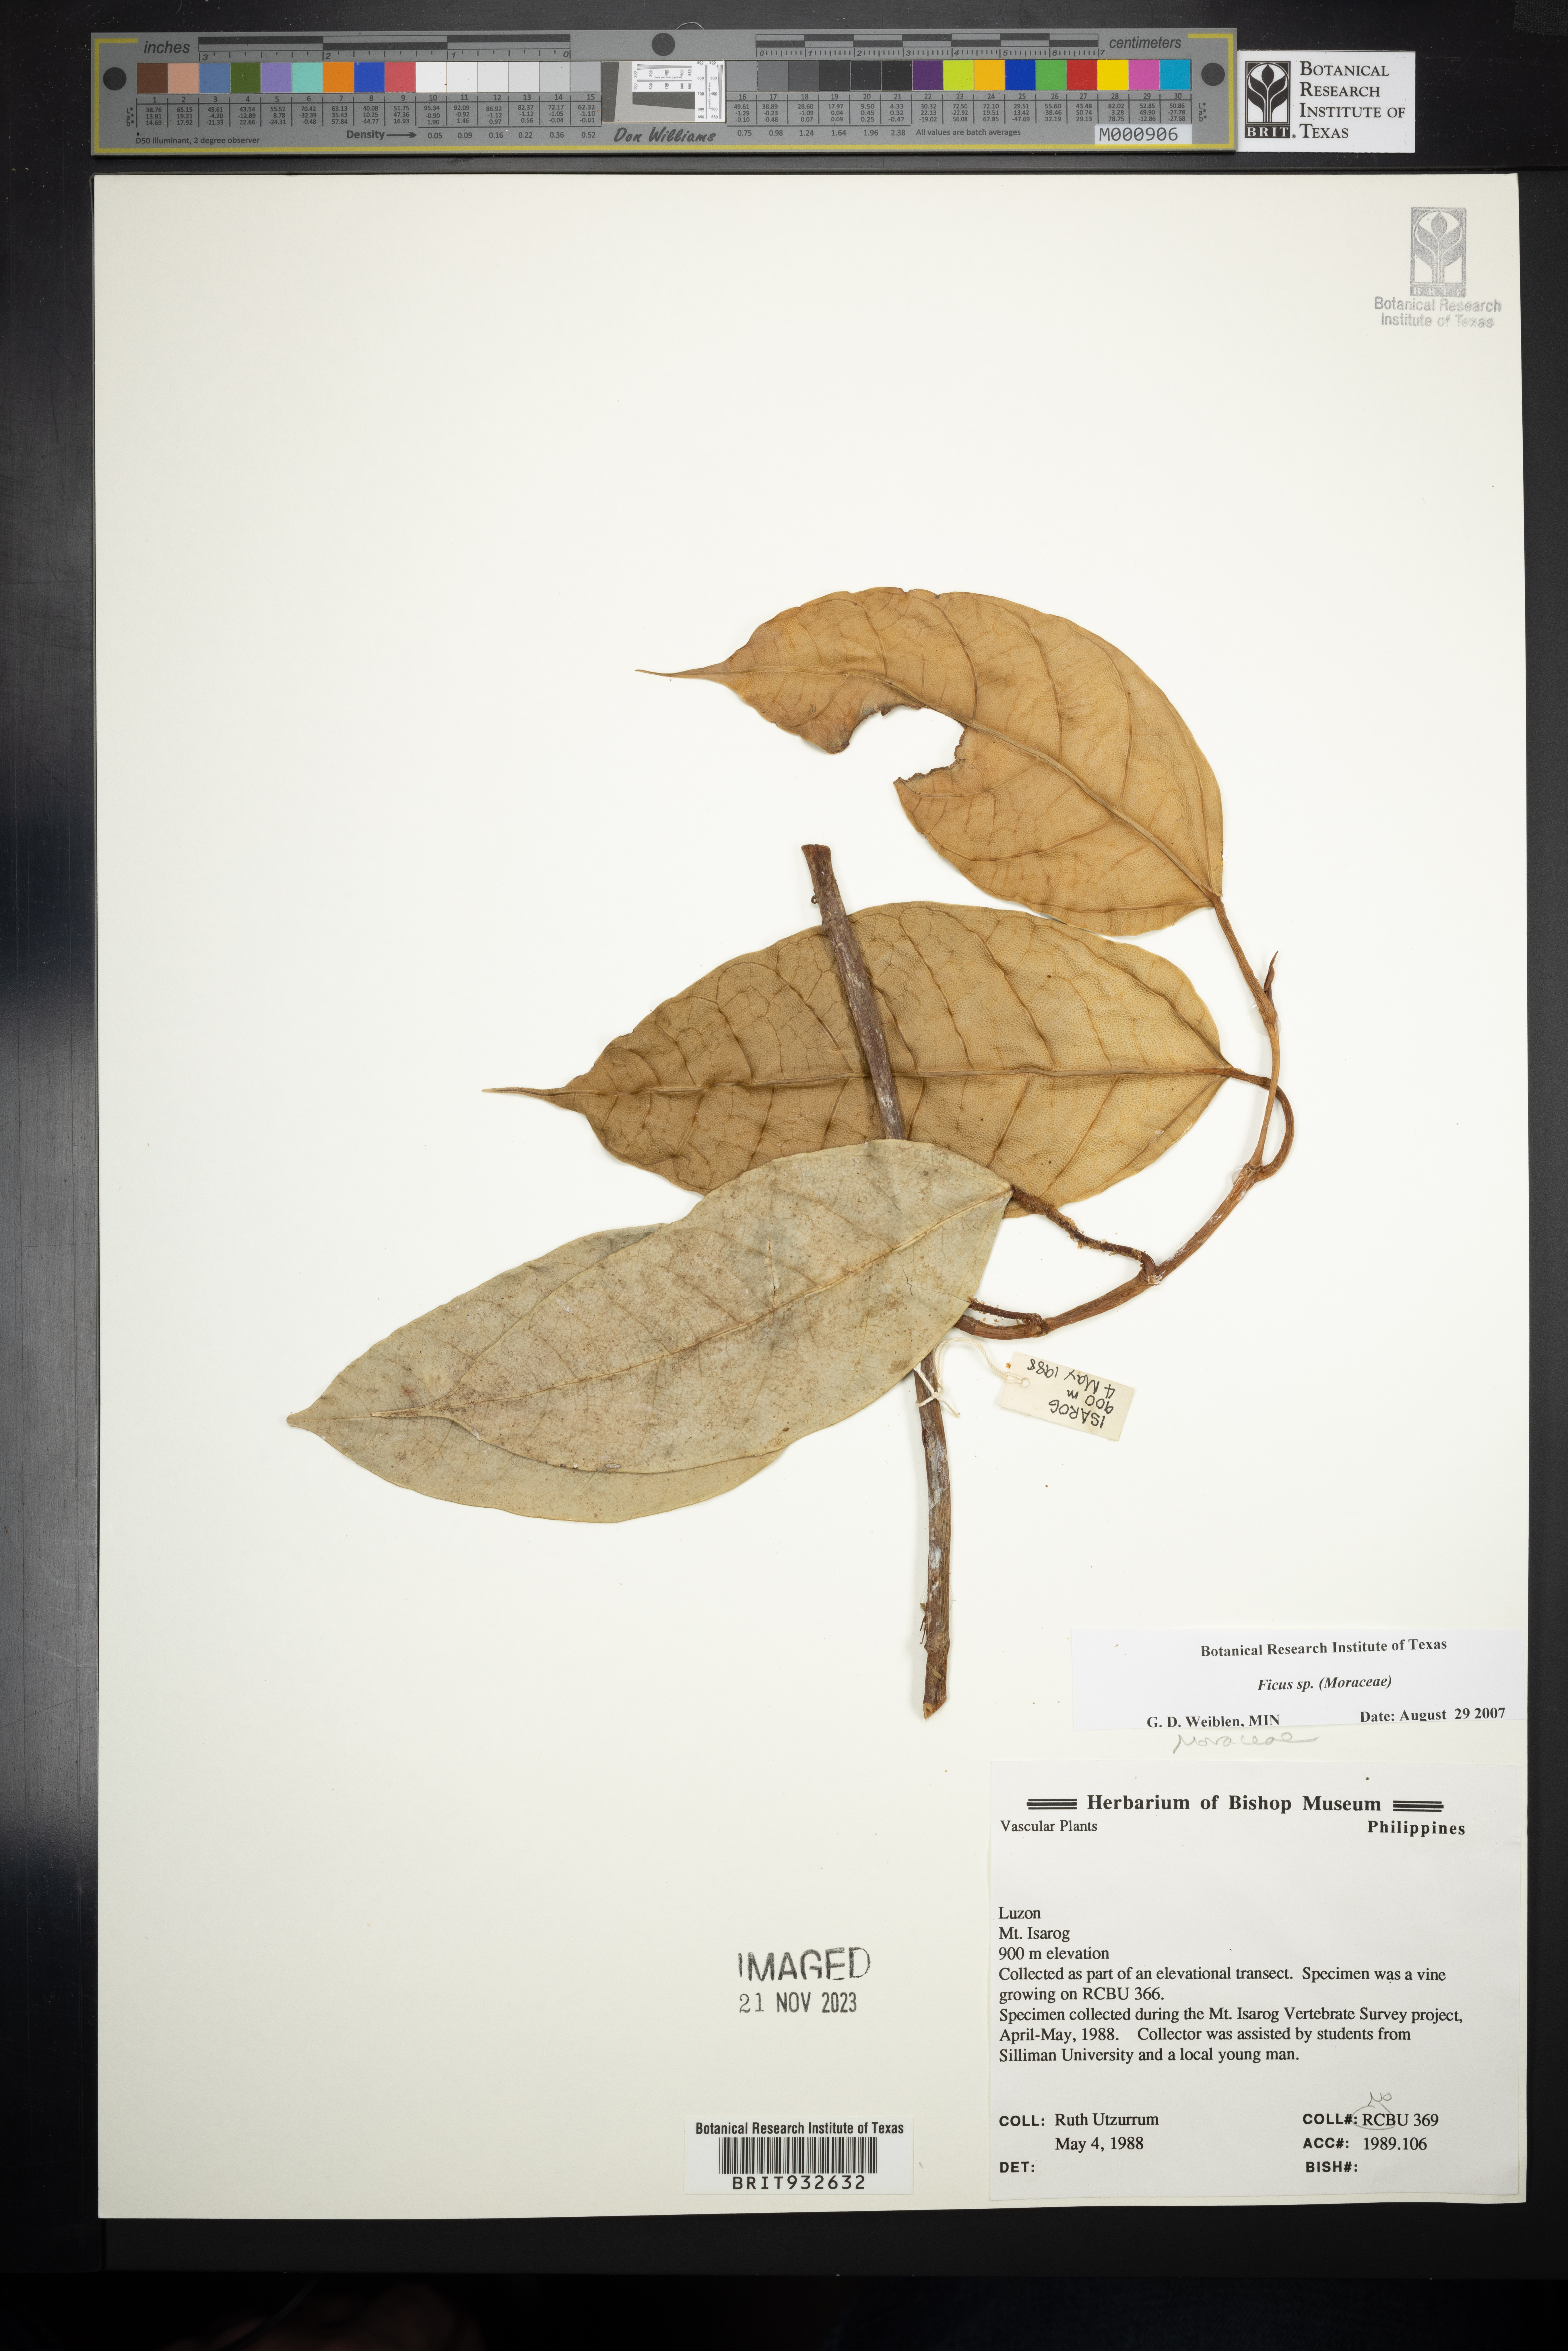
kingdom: Plantae
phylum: Tracheophyta
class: Magnoliopsida
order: Rosales
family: Moraceae
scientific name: Moraceae
